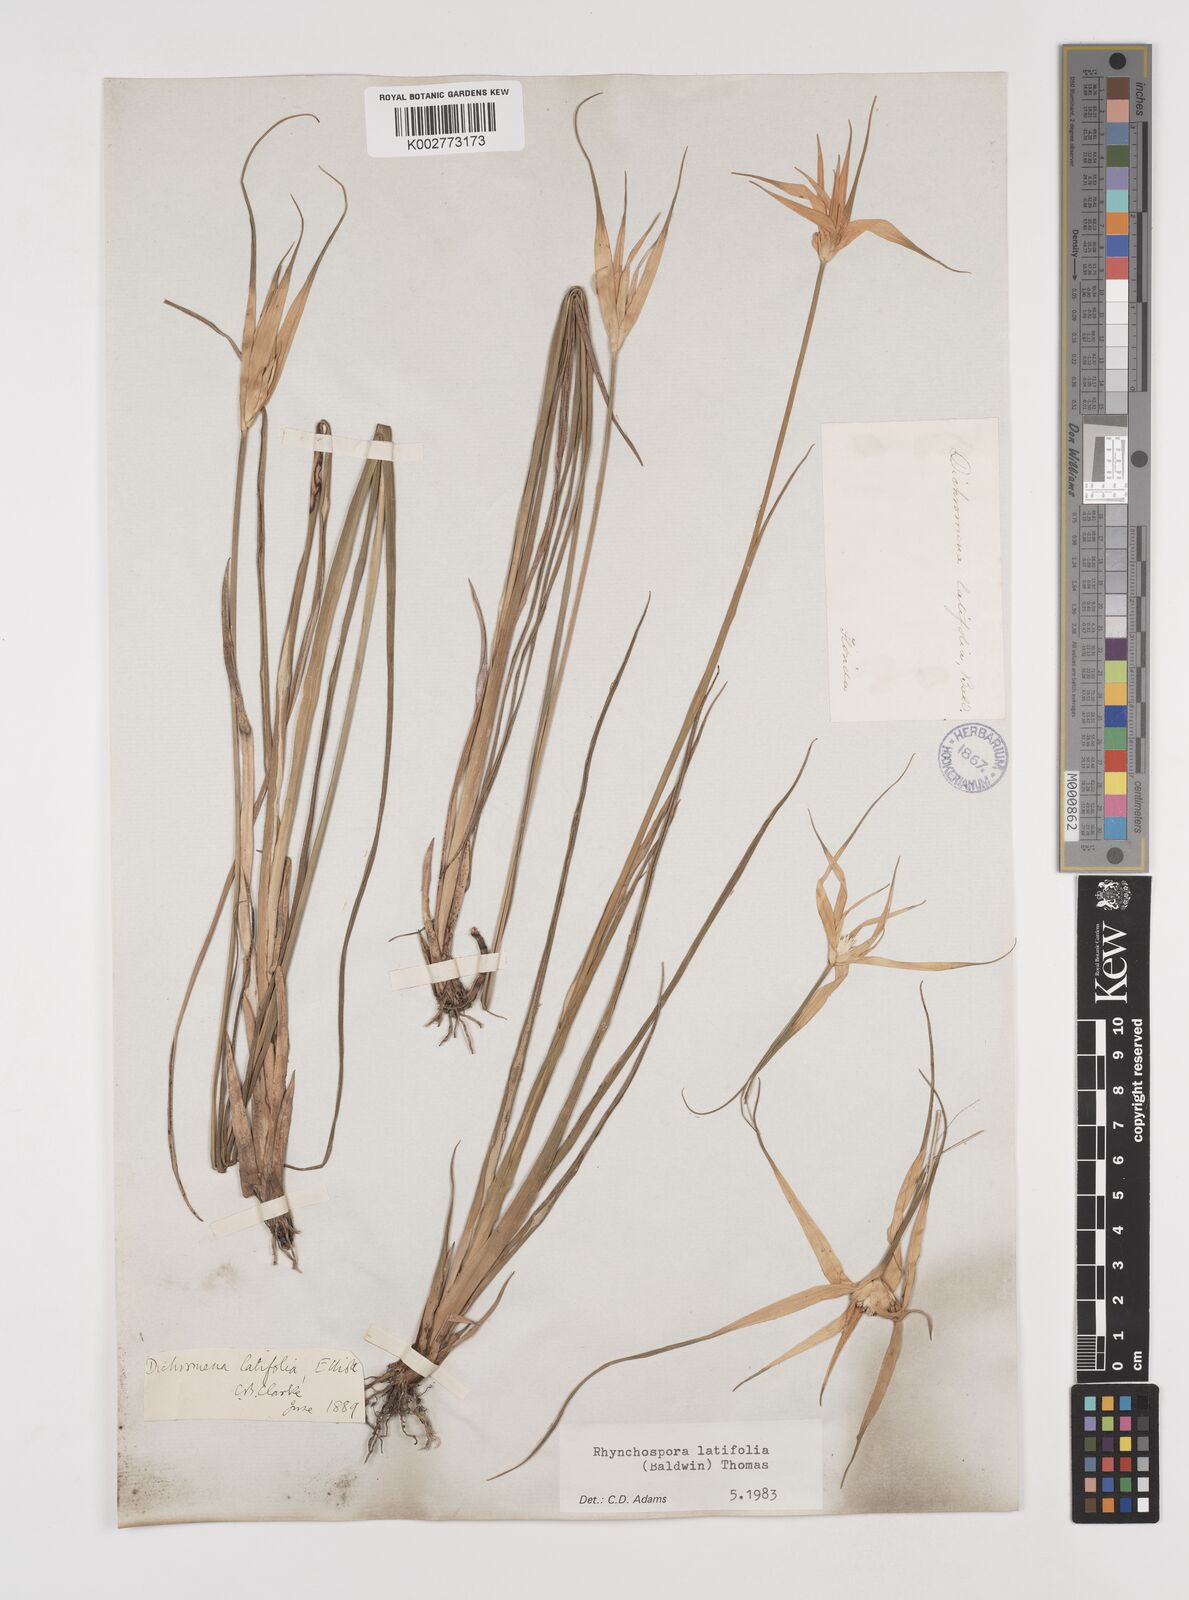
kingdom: Plantae
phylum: Tracheophyta
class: Liliopsida
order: Poales
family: Cyperaceae
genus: Rhynchospora
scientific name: Rhynchospora colorata
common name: Star sedge
